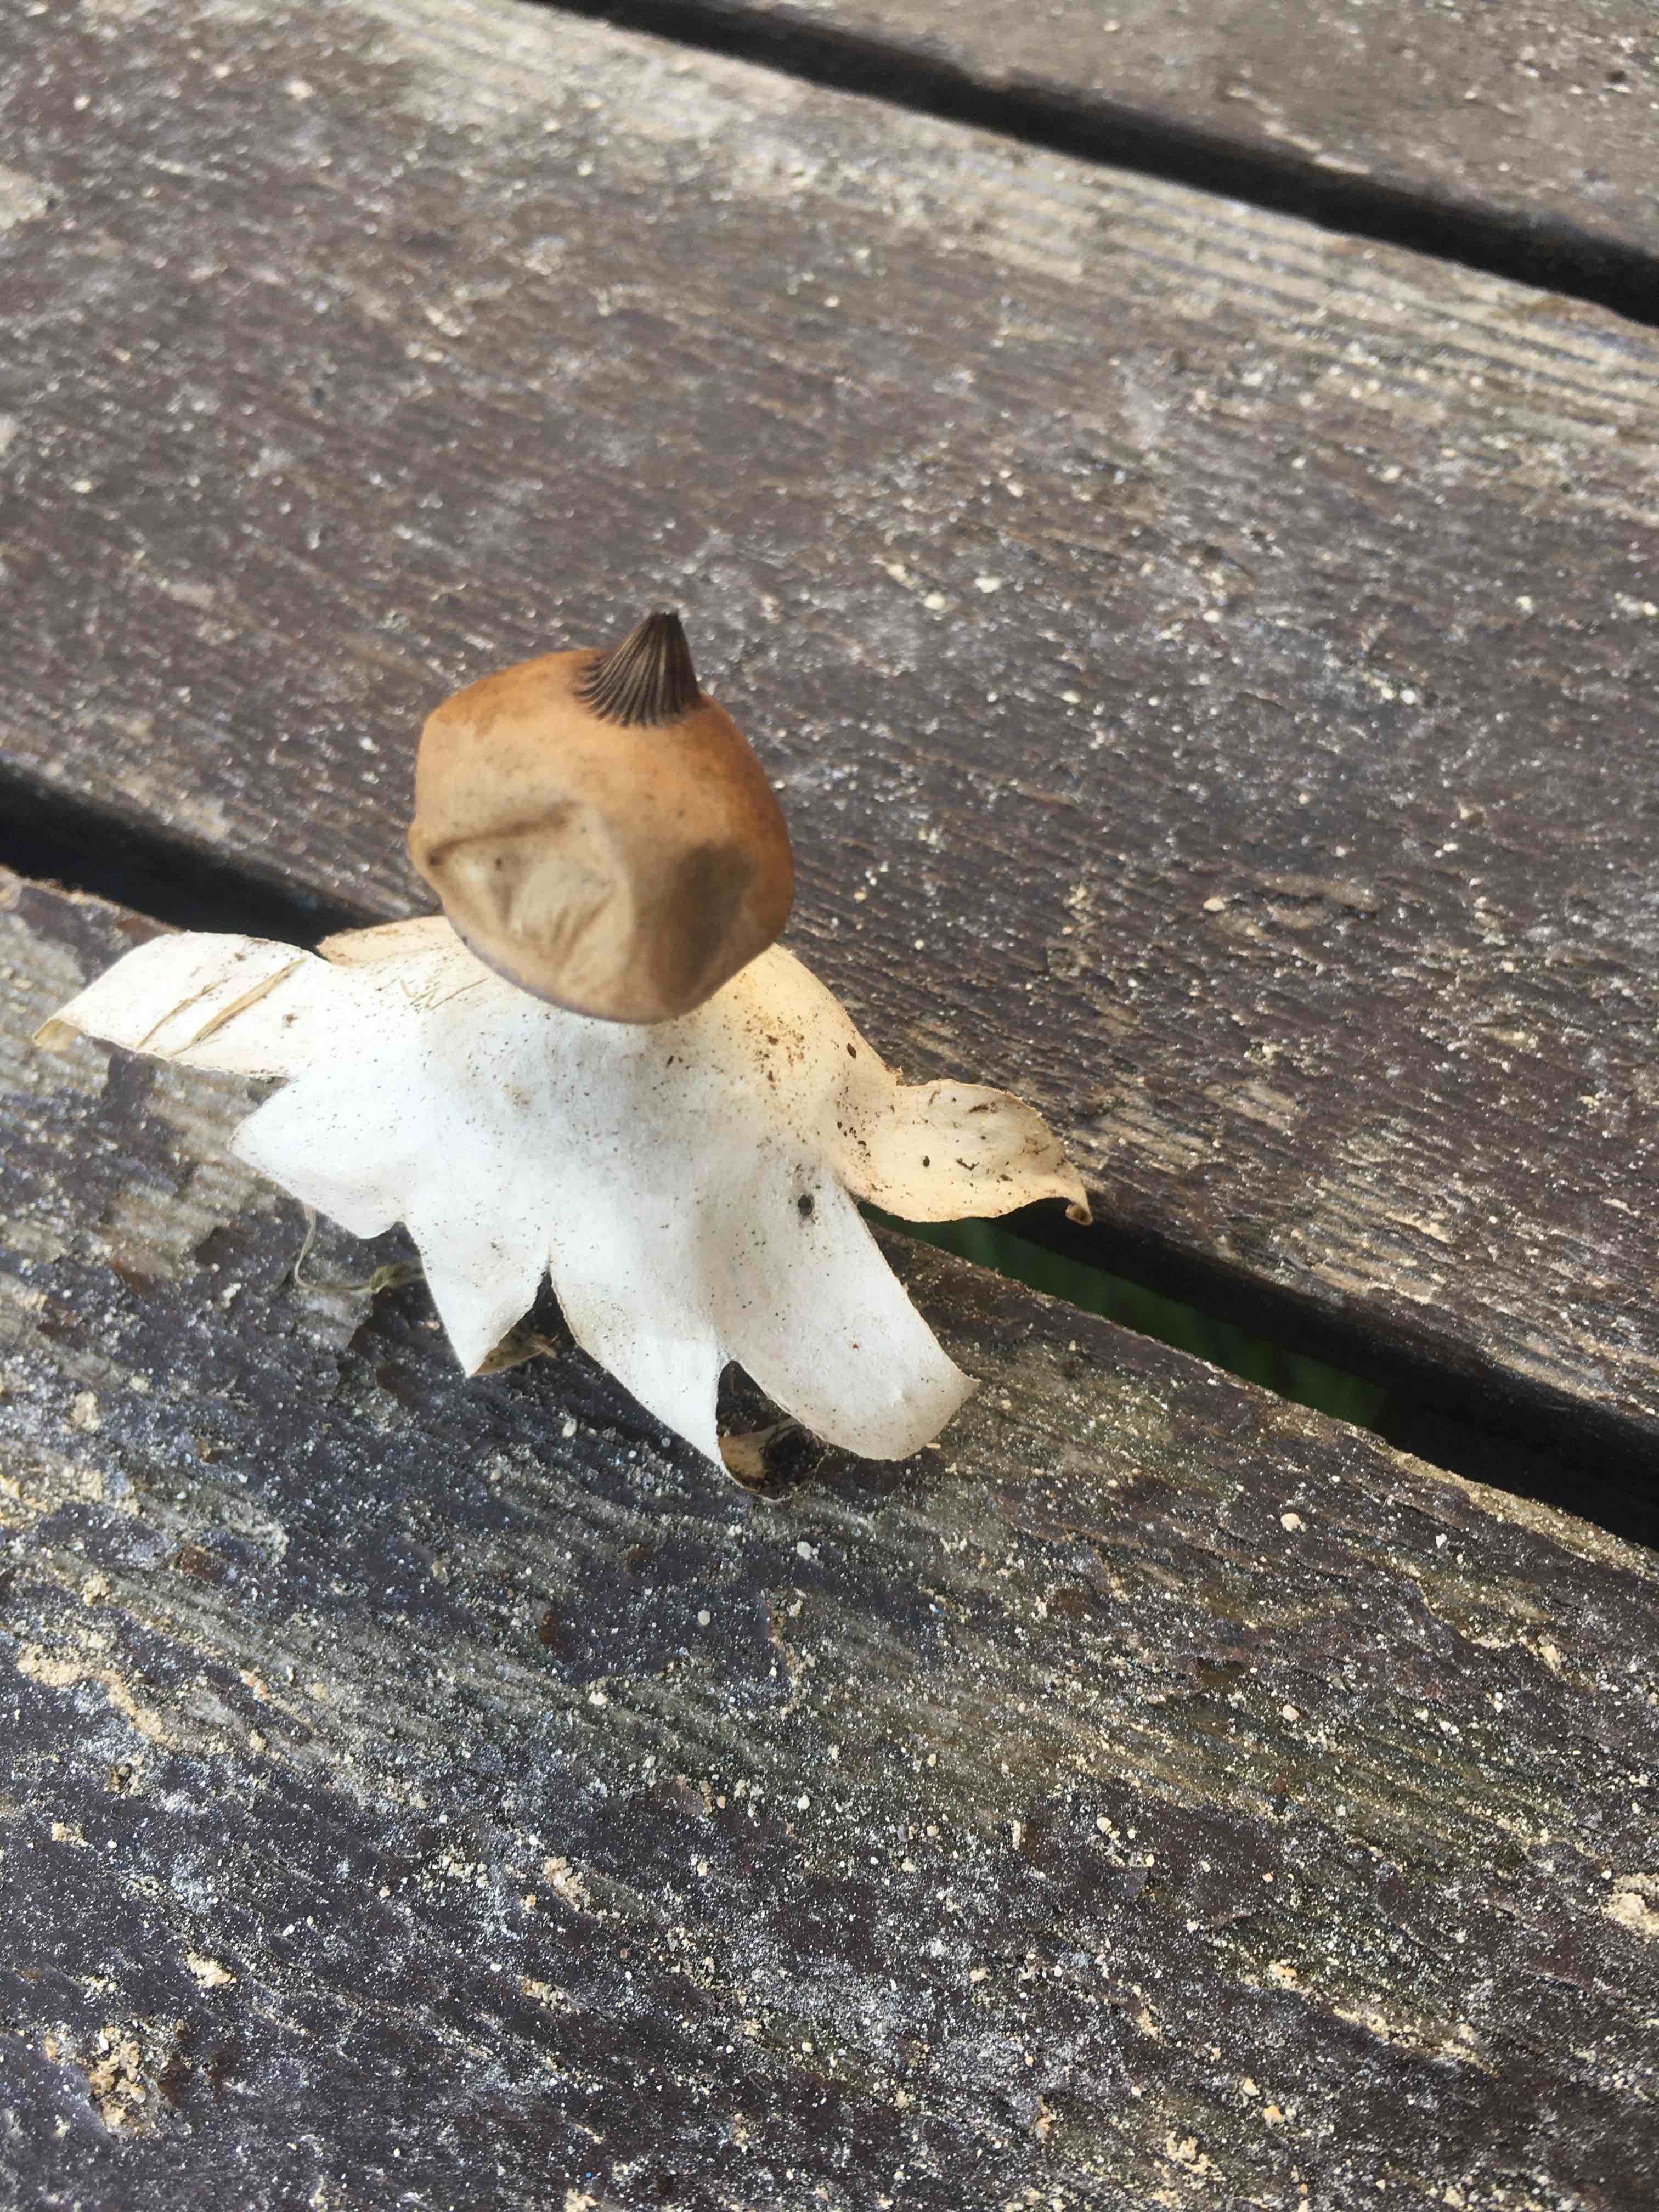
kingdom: Fungi
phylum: Basidiomycota
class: Agaricomycetes
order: Geastrales
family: Geastraceae
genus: Geastrum
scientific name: Geastrum pectinatum
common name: stilket stjernebold
